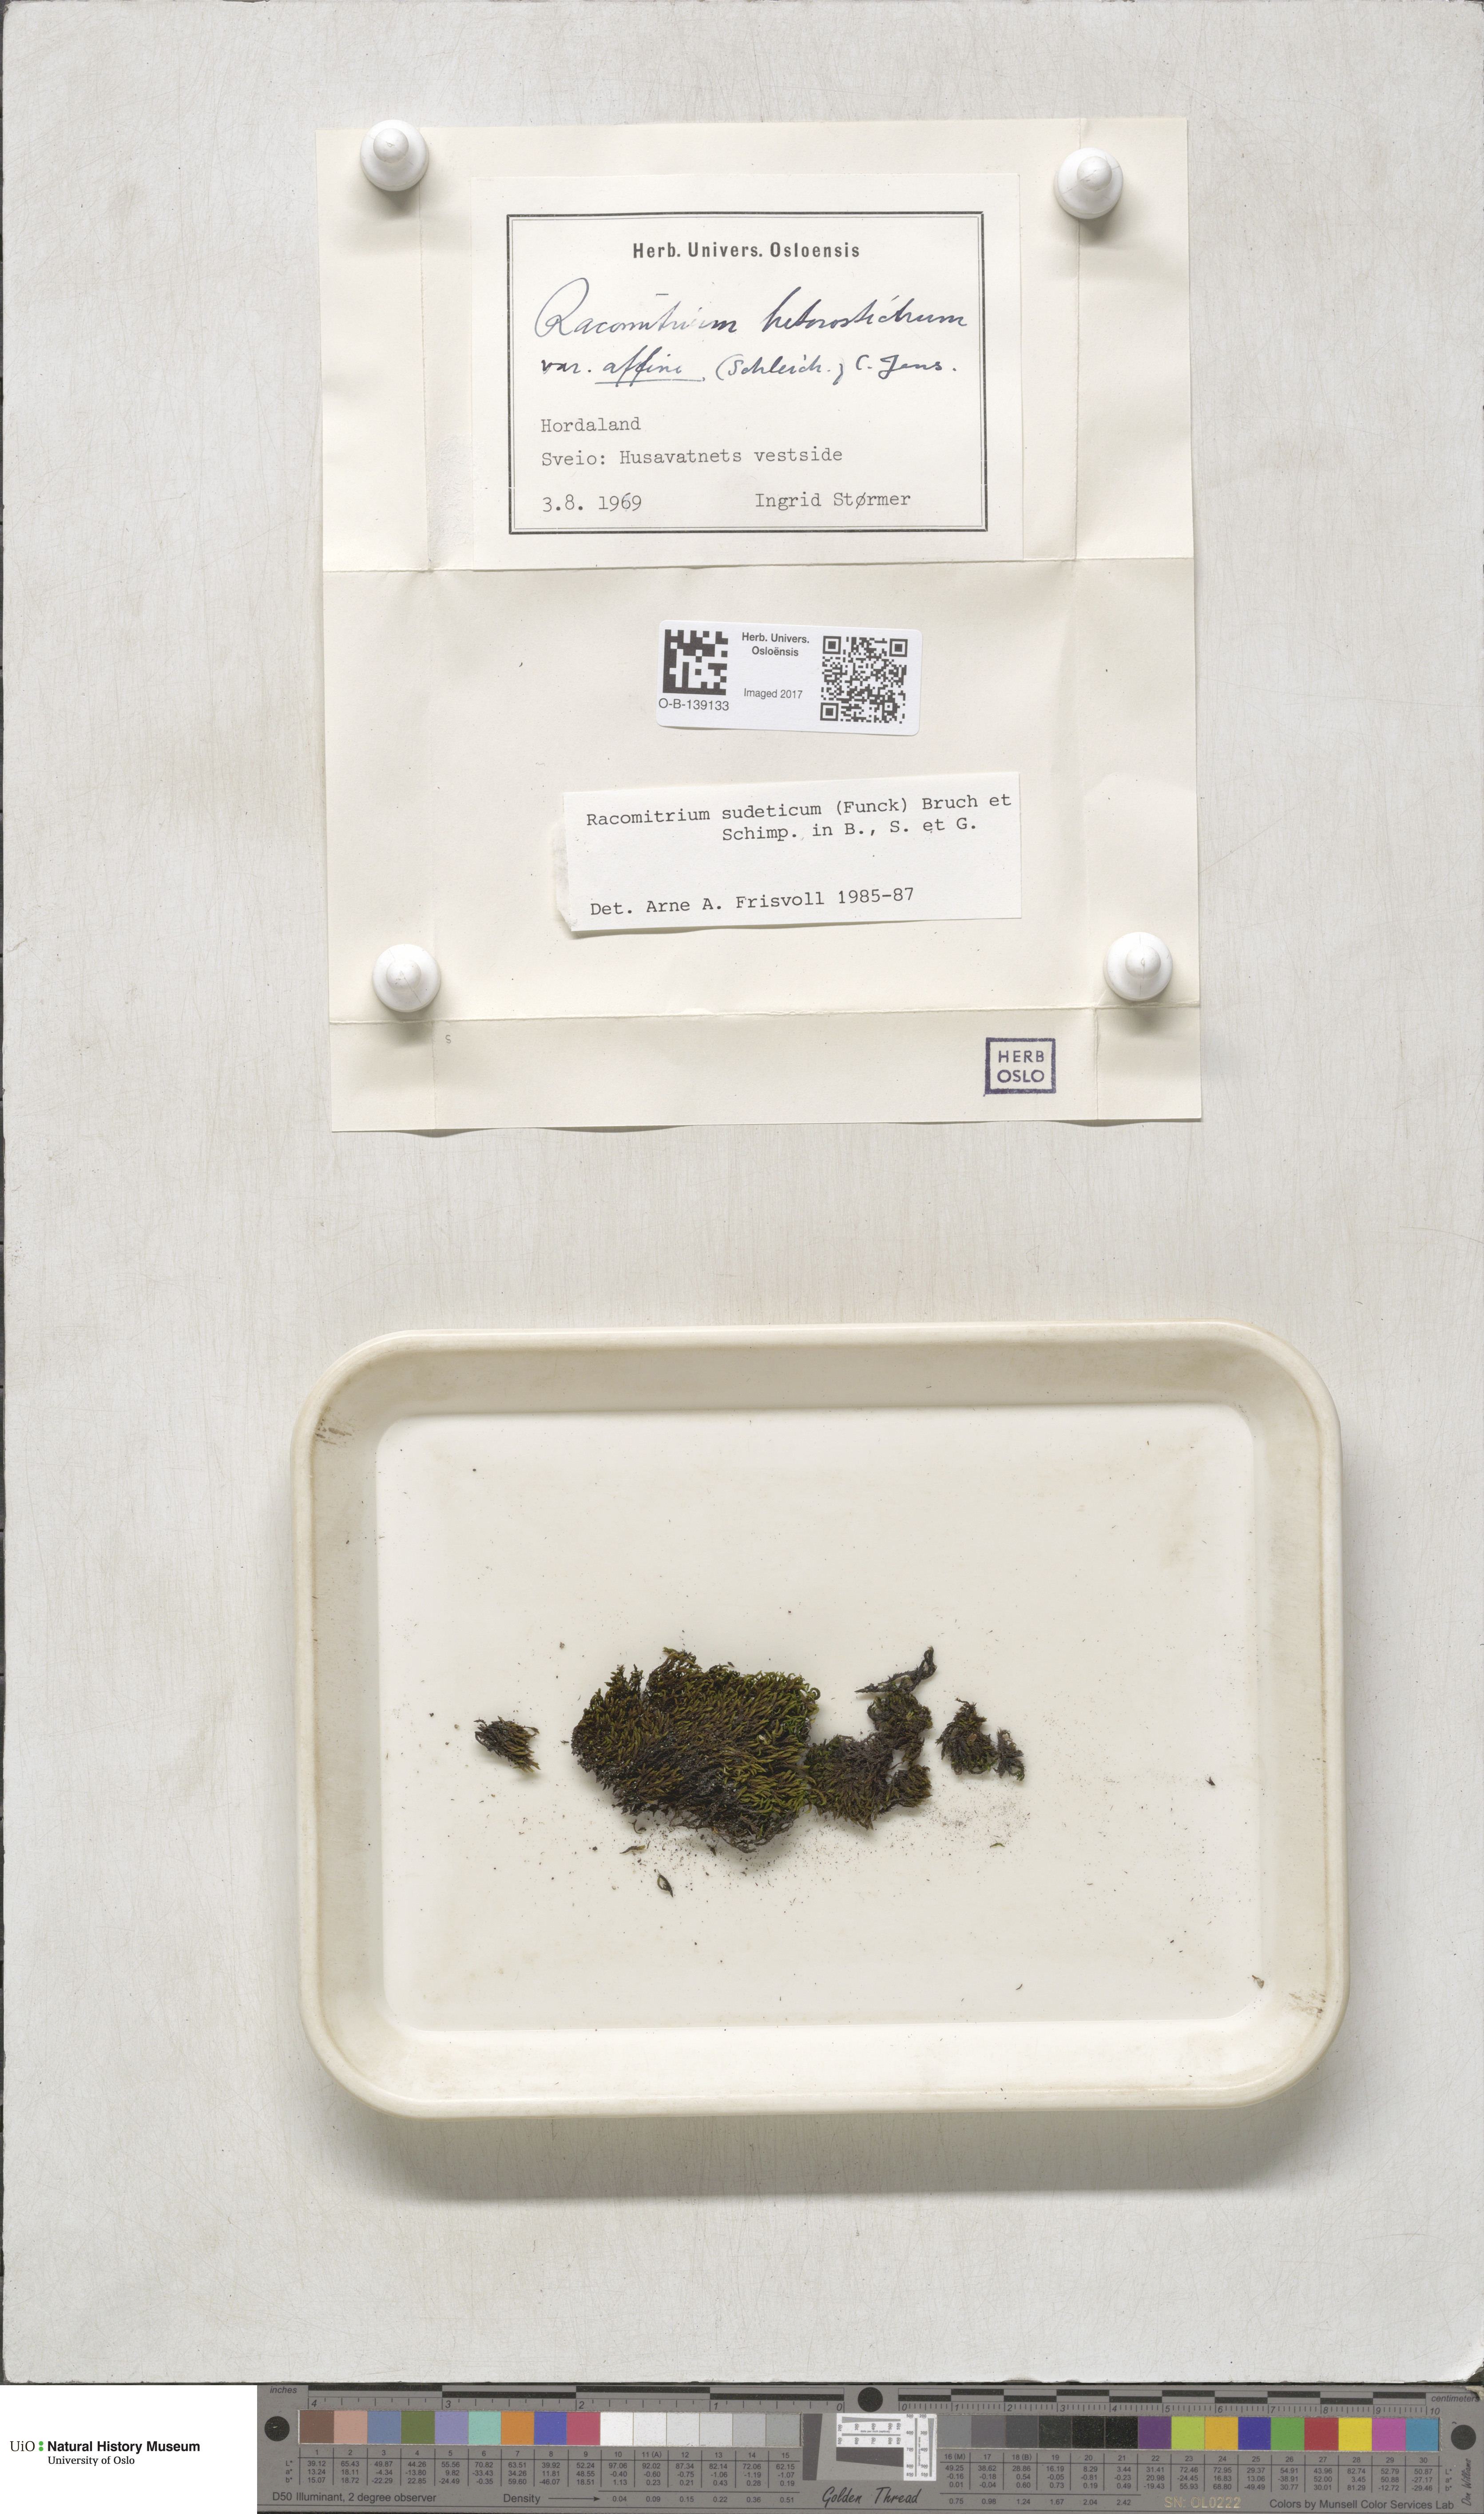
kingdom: Plantae
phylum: Bryophyta
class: Bryopsida
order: Grimmiales
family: Grimmiaceae
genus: Bucklandiella
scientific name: Bucklandiella sudetica
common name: Slender fringe-moss
